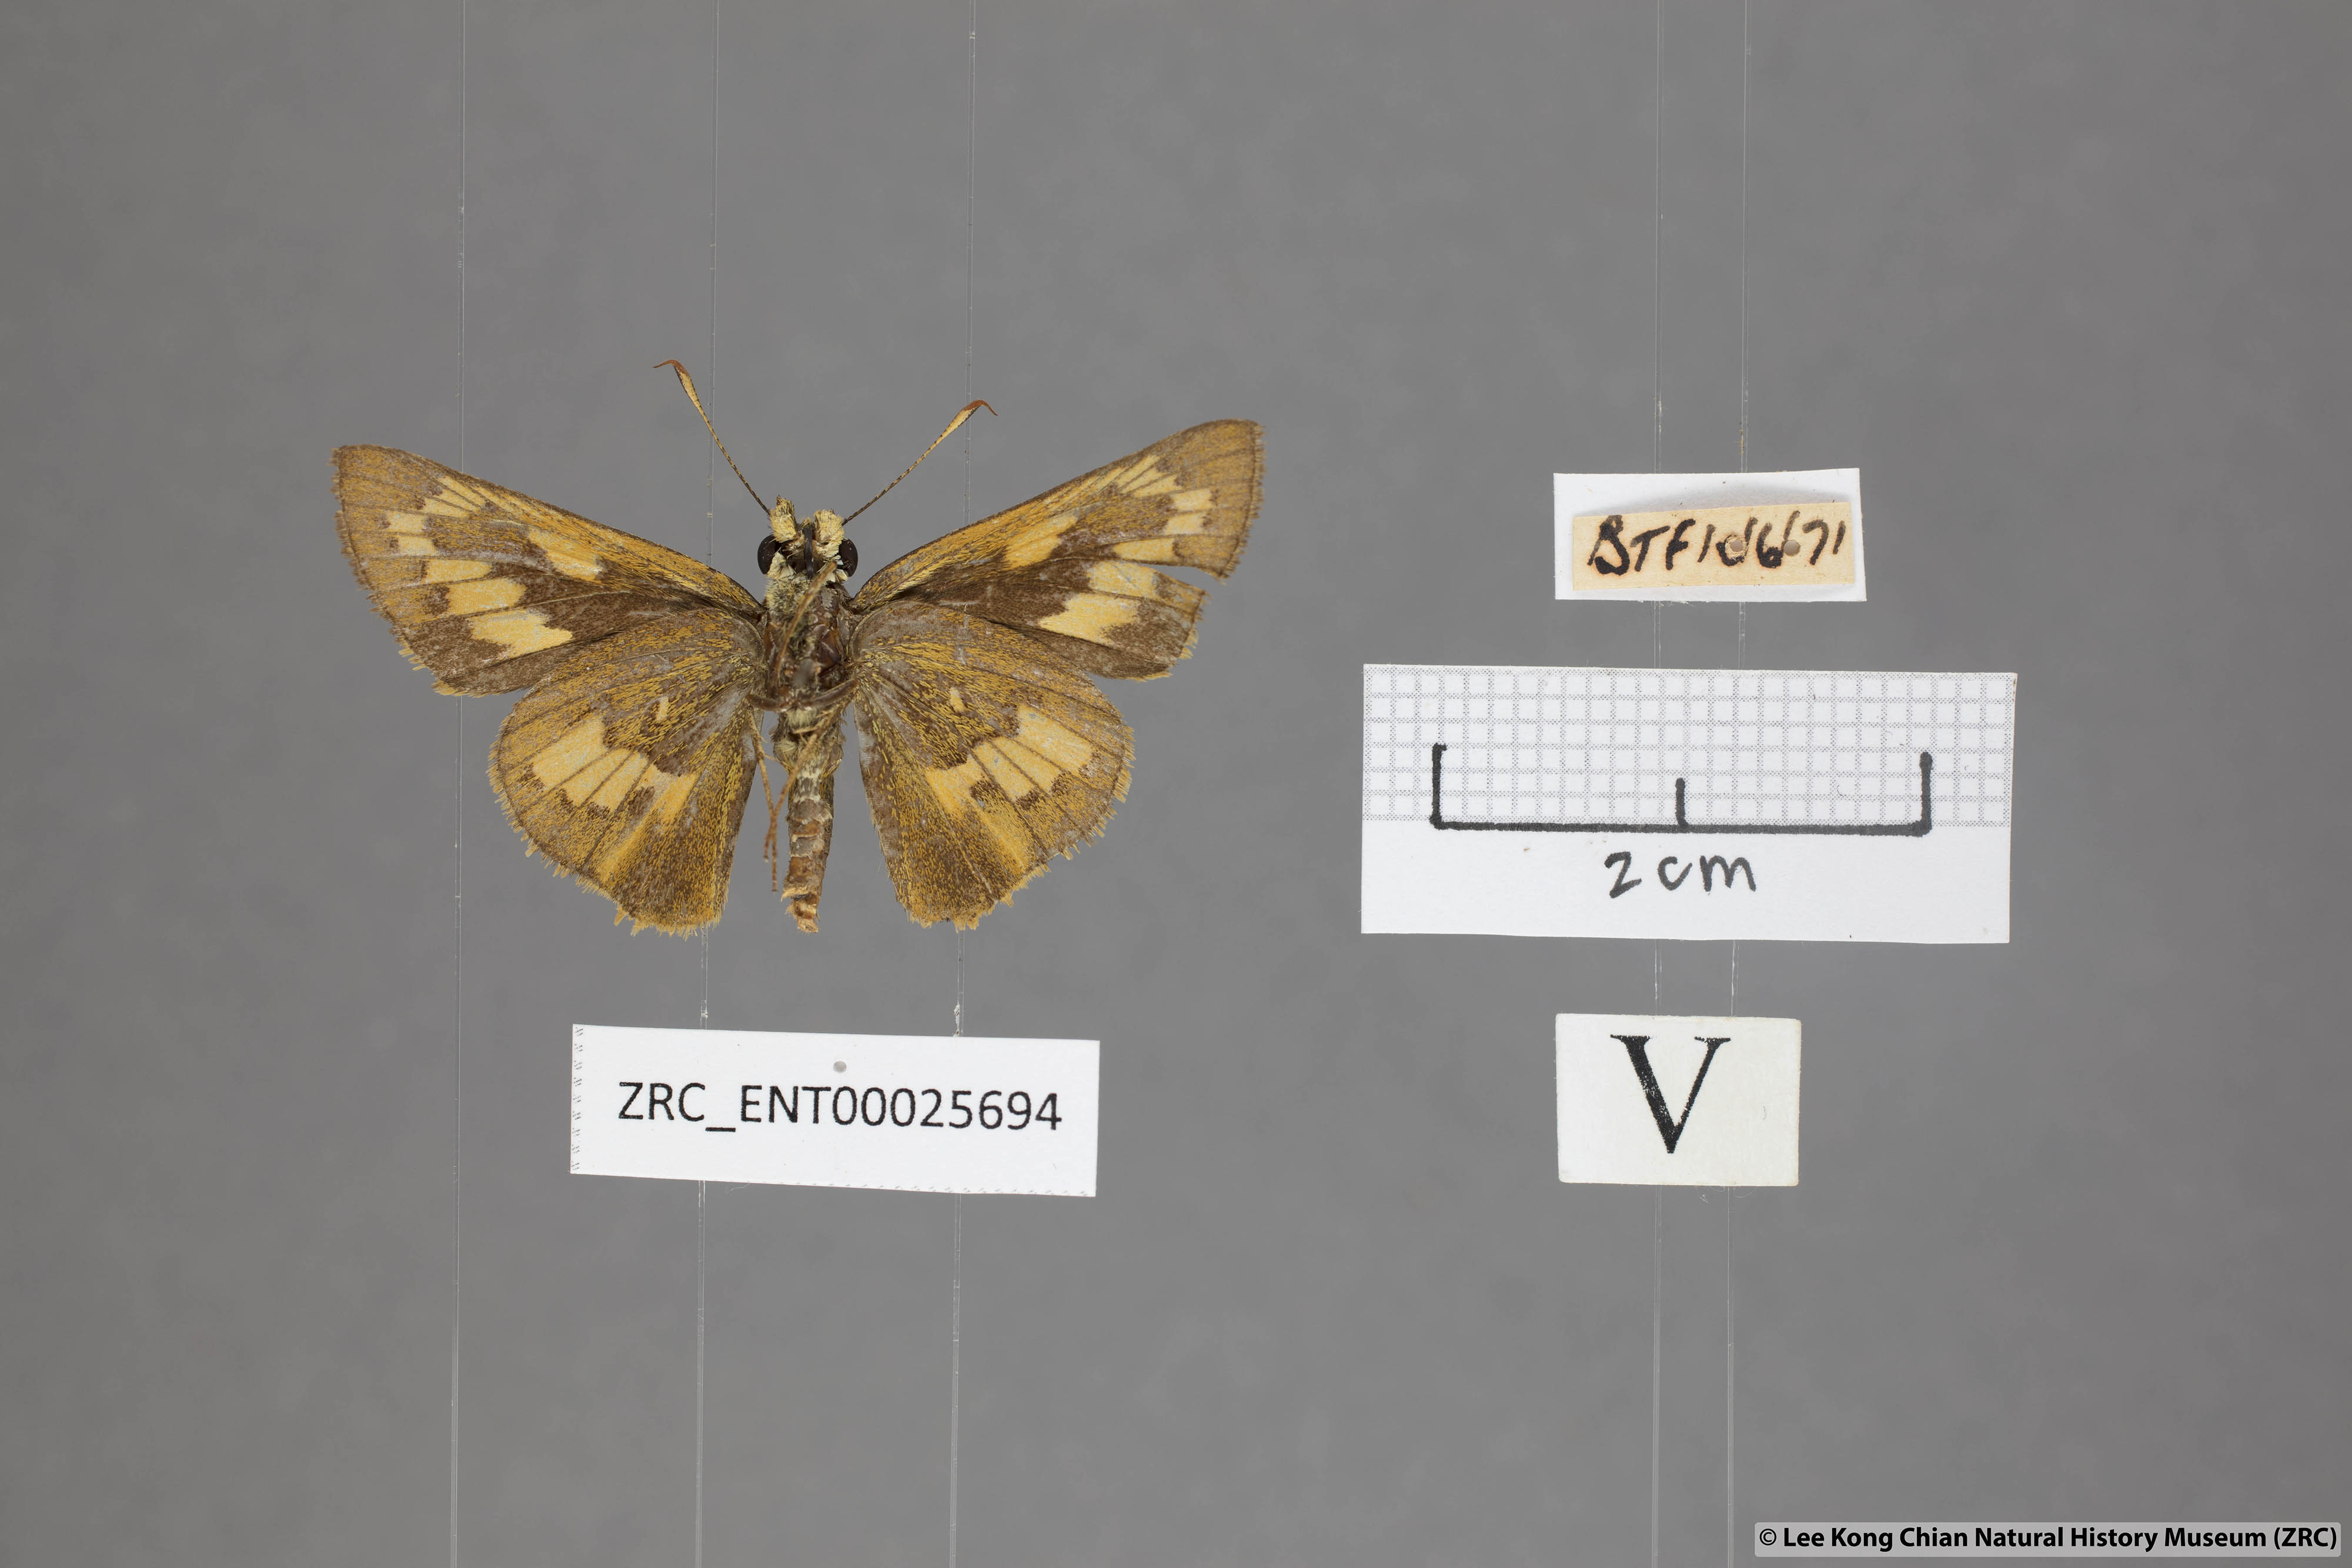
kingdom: Animalia
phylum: Arthropoda
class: Insecta
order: Lepidoptera
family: Hesperiidae
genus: Telicota
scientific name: Telicota ohara
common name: Dark palm dart
